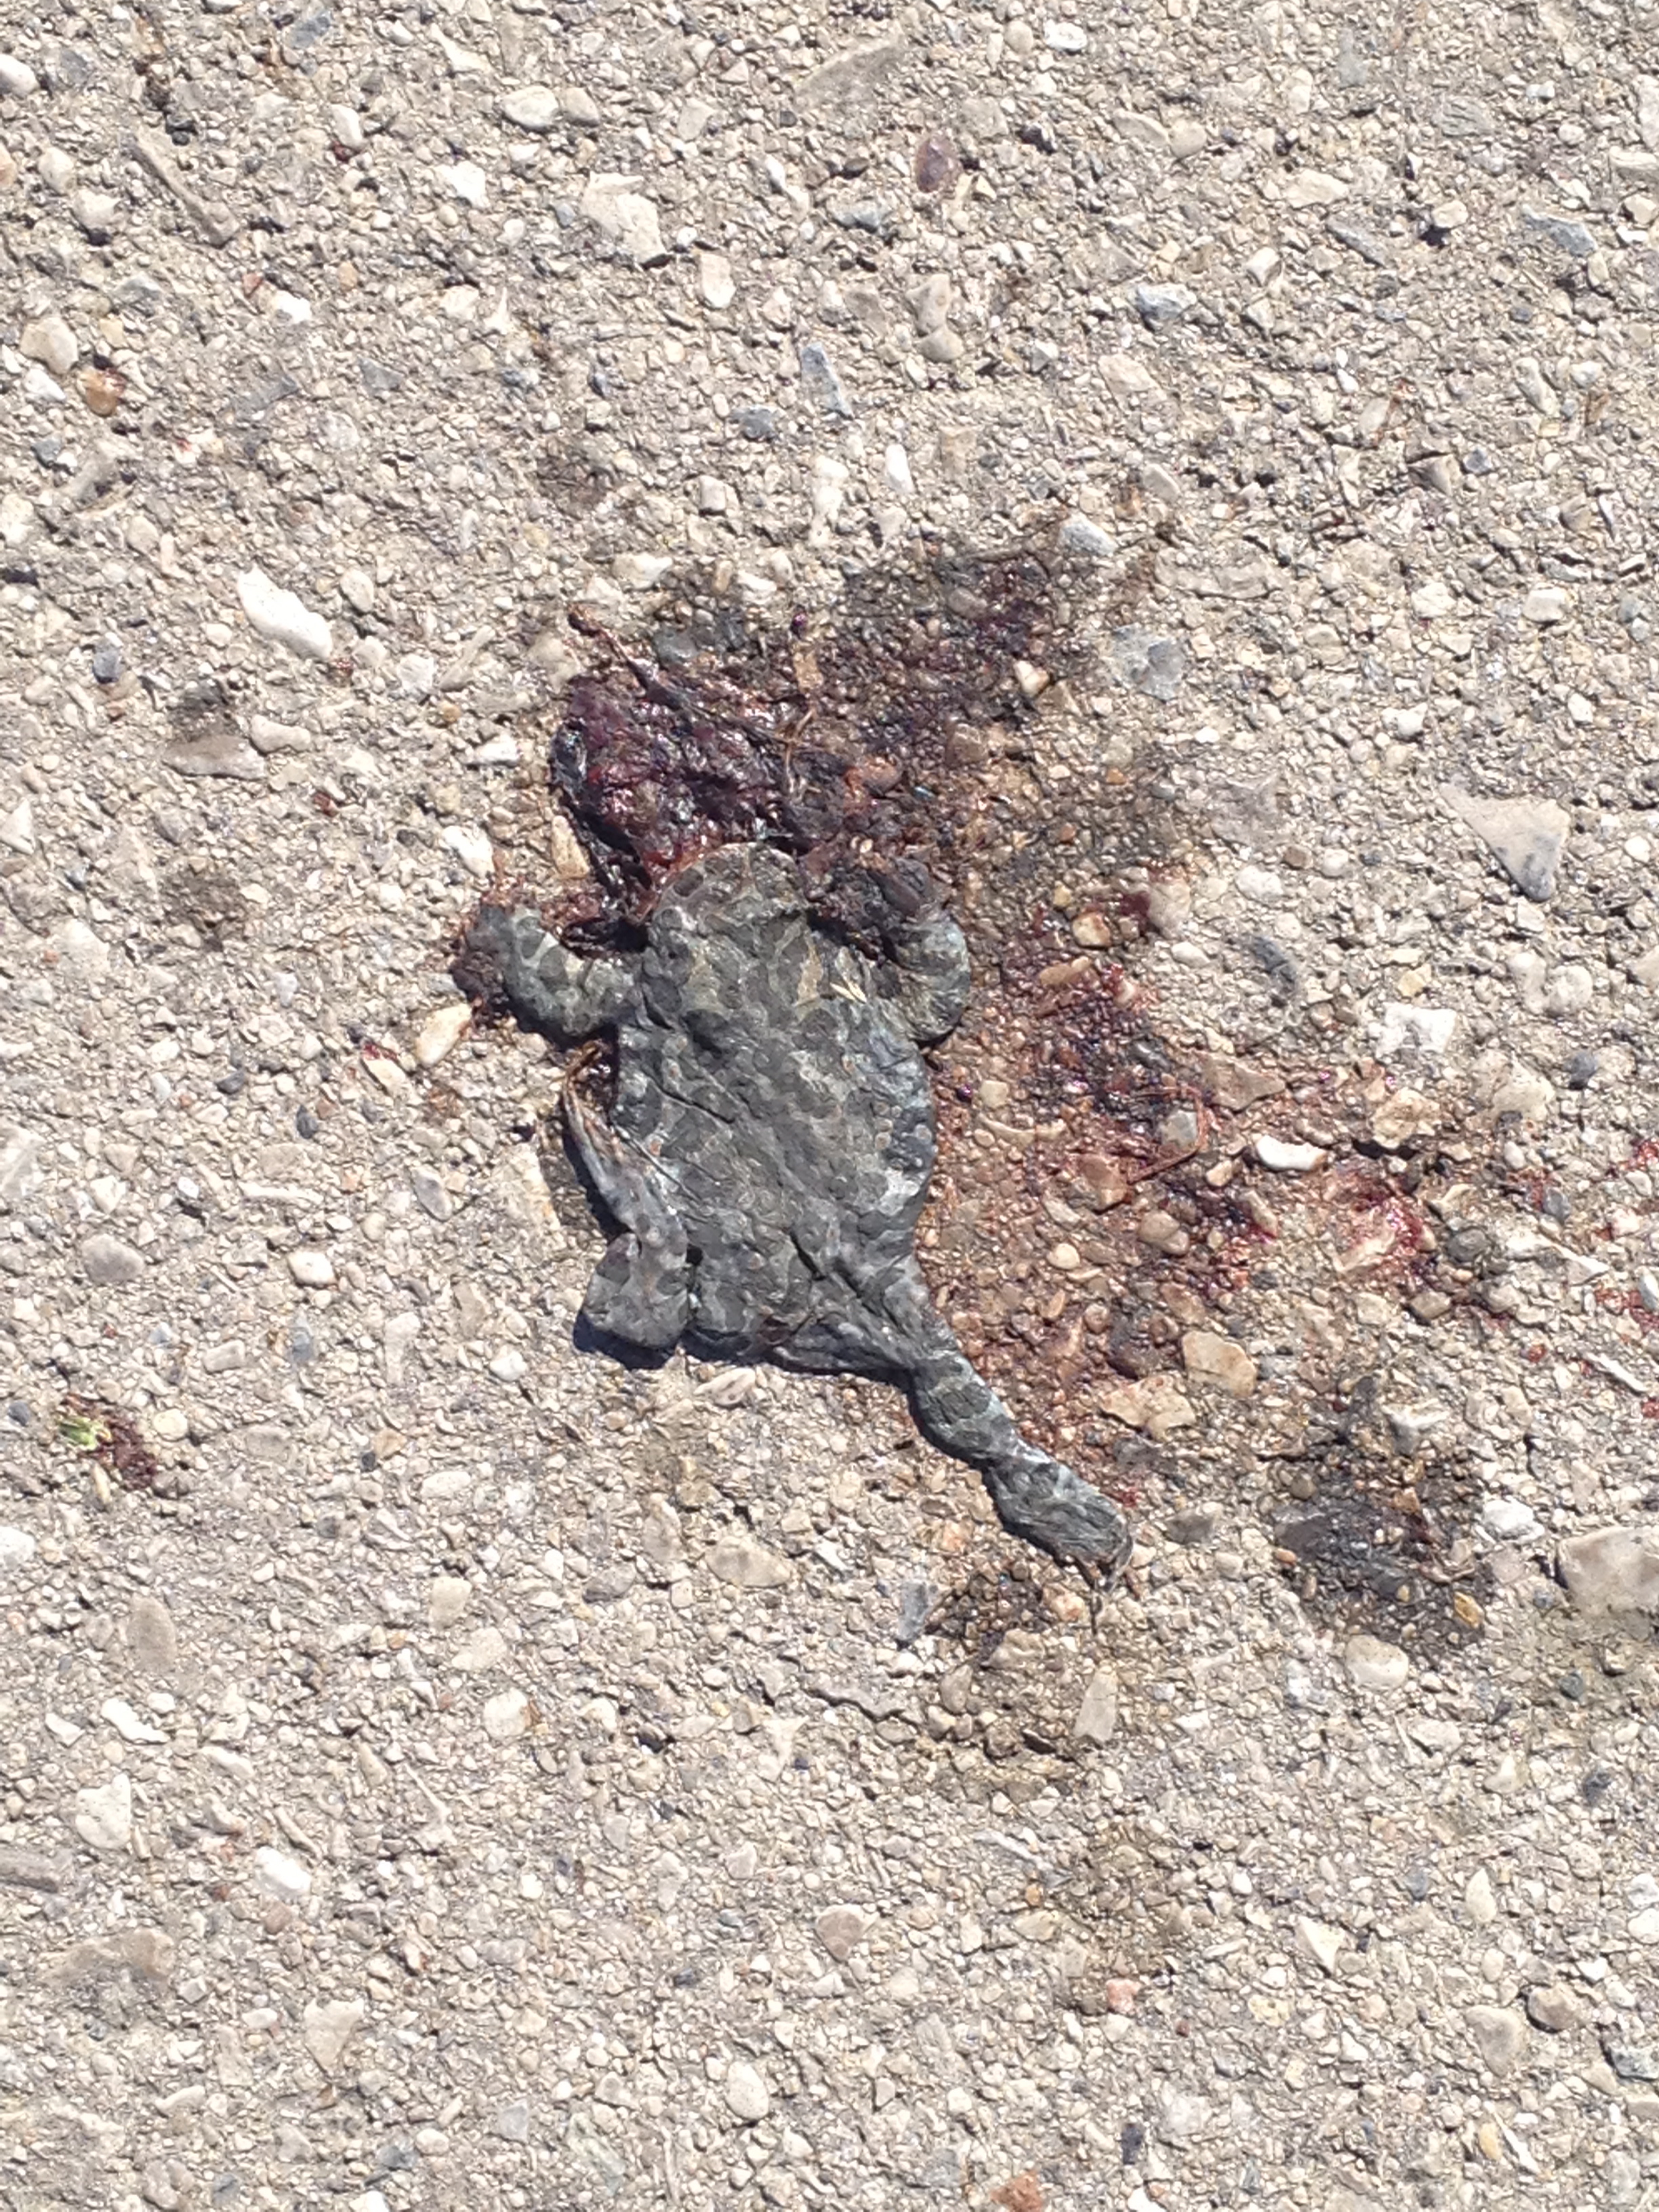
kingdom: Animalia
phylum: Chordata
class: Amphibia
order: Anura
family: Bufonidae
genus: Bufotes
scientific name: Bufotes viridis
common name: European green toad
